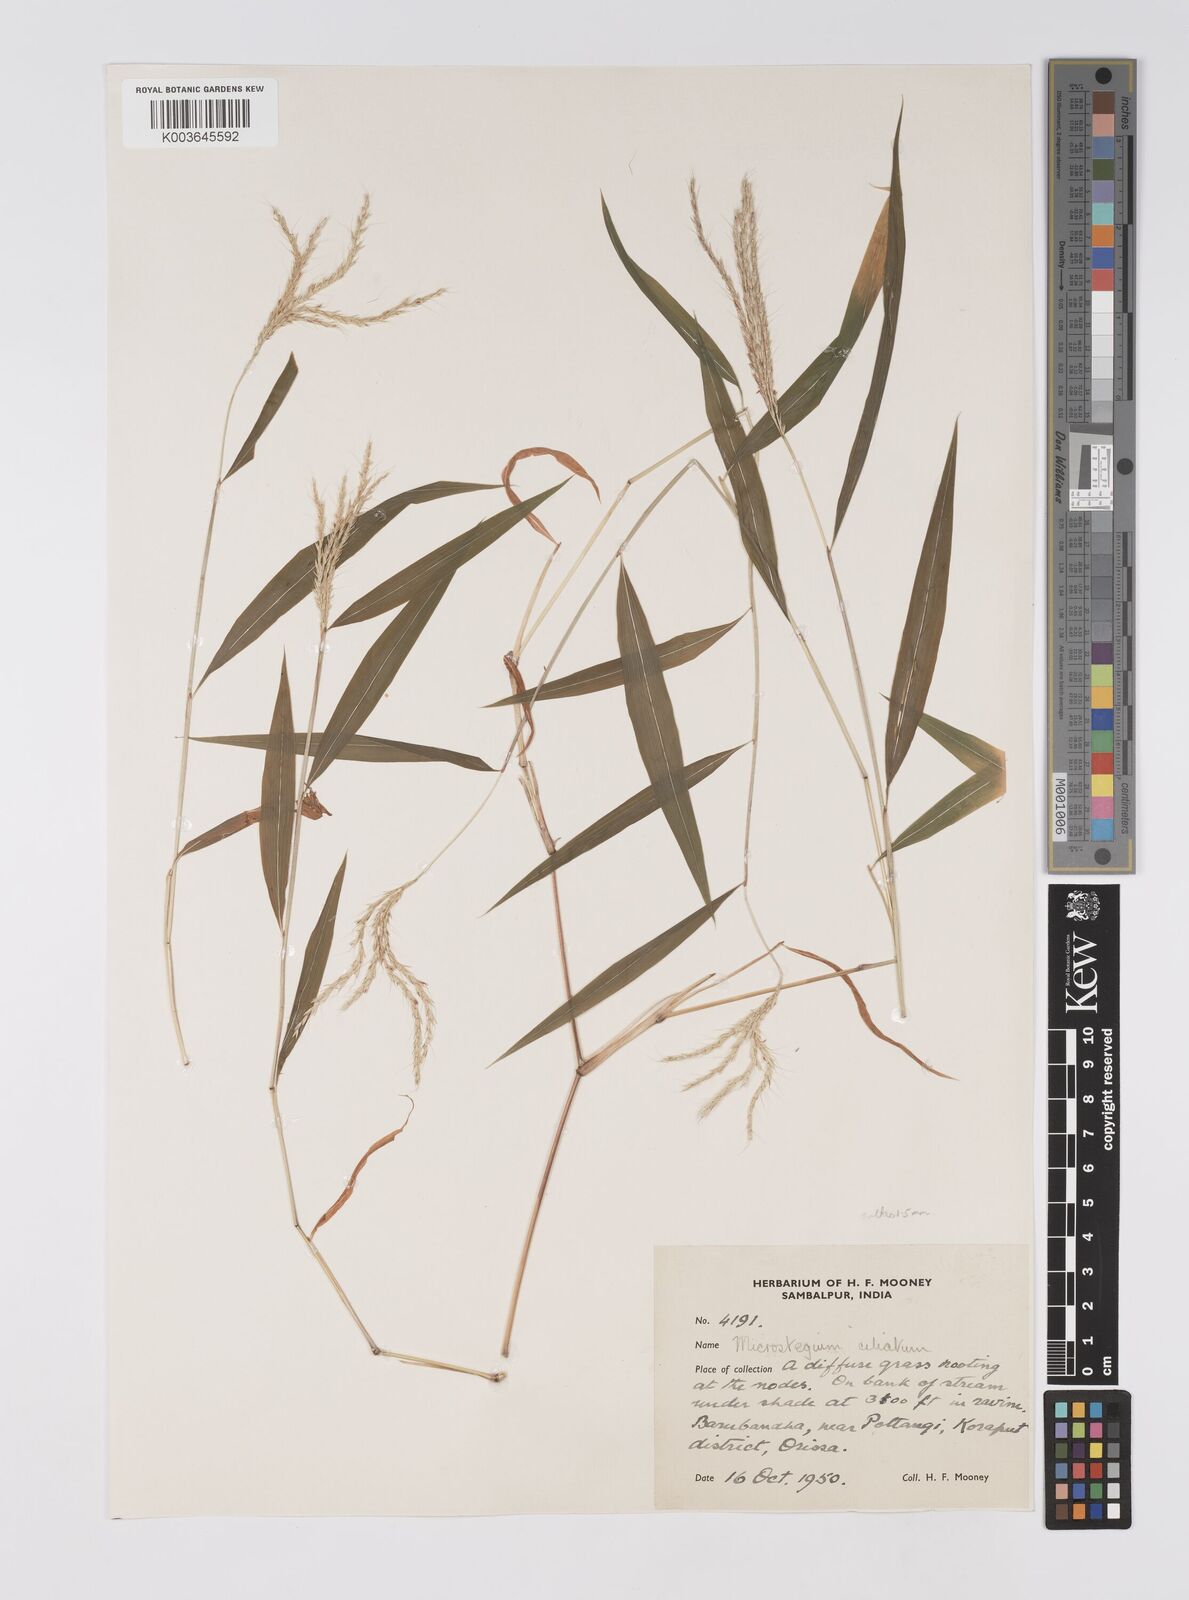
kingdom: Plantae
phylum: Tracheophyta
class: Liliopsida
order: Poales
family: Poaceae
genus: Microstegium
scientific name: Microstegium fasciculatum
